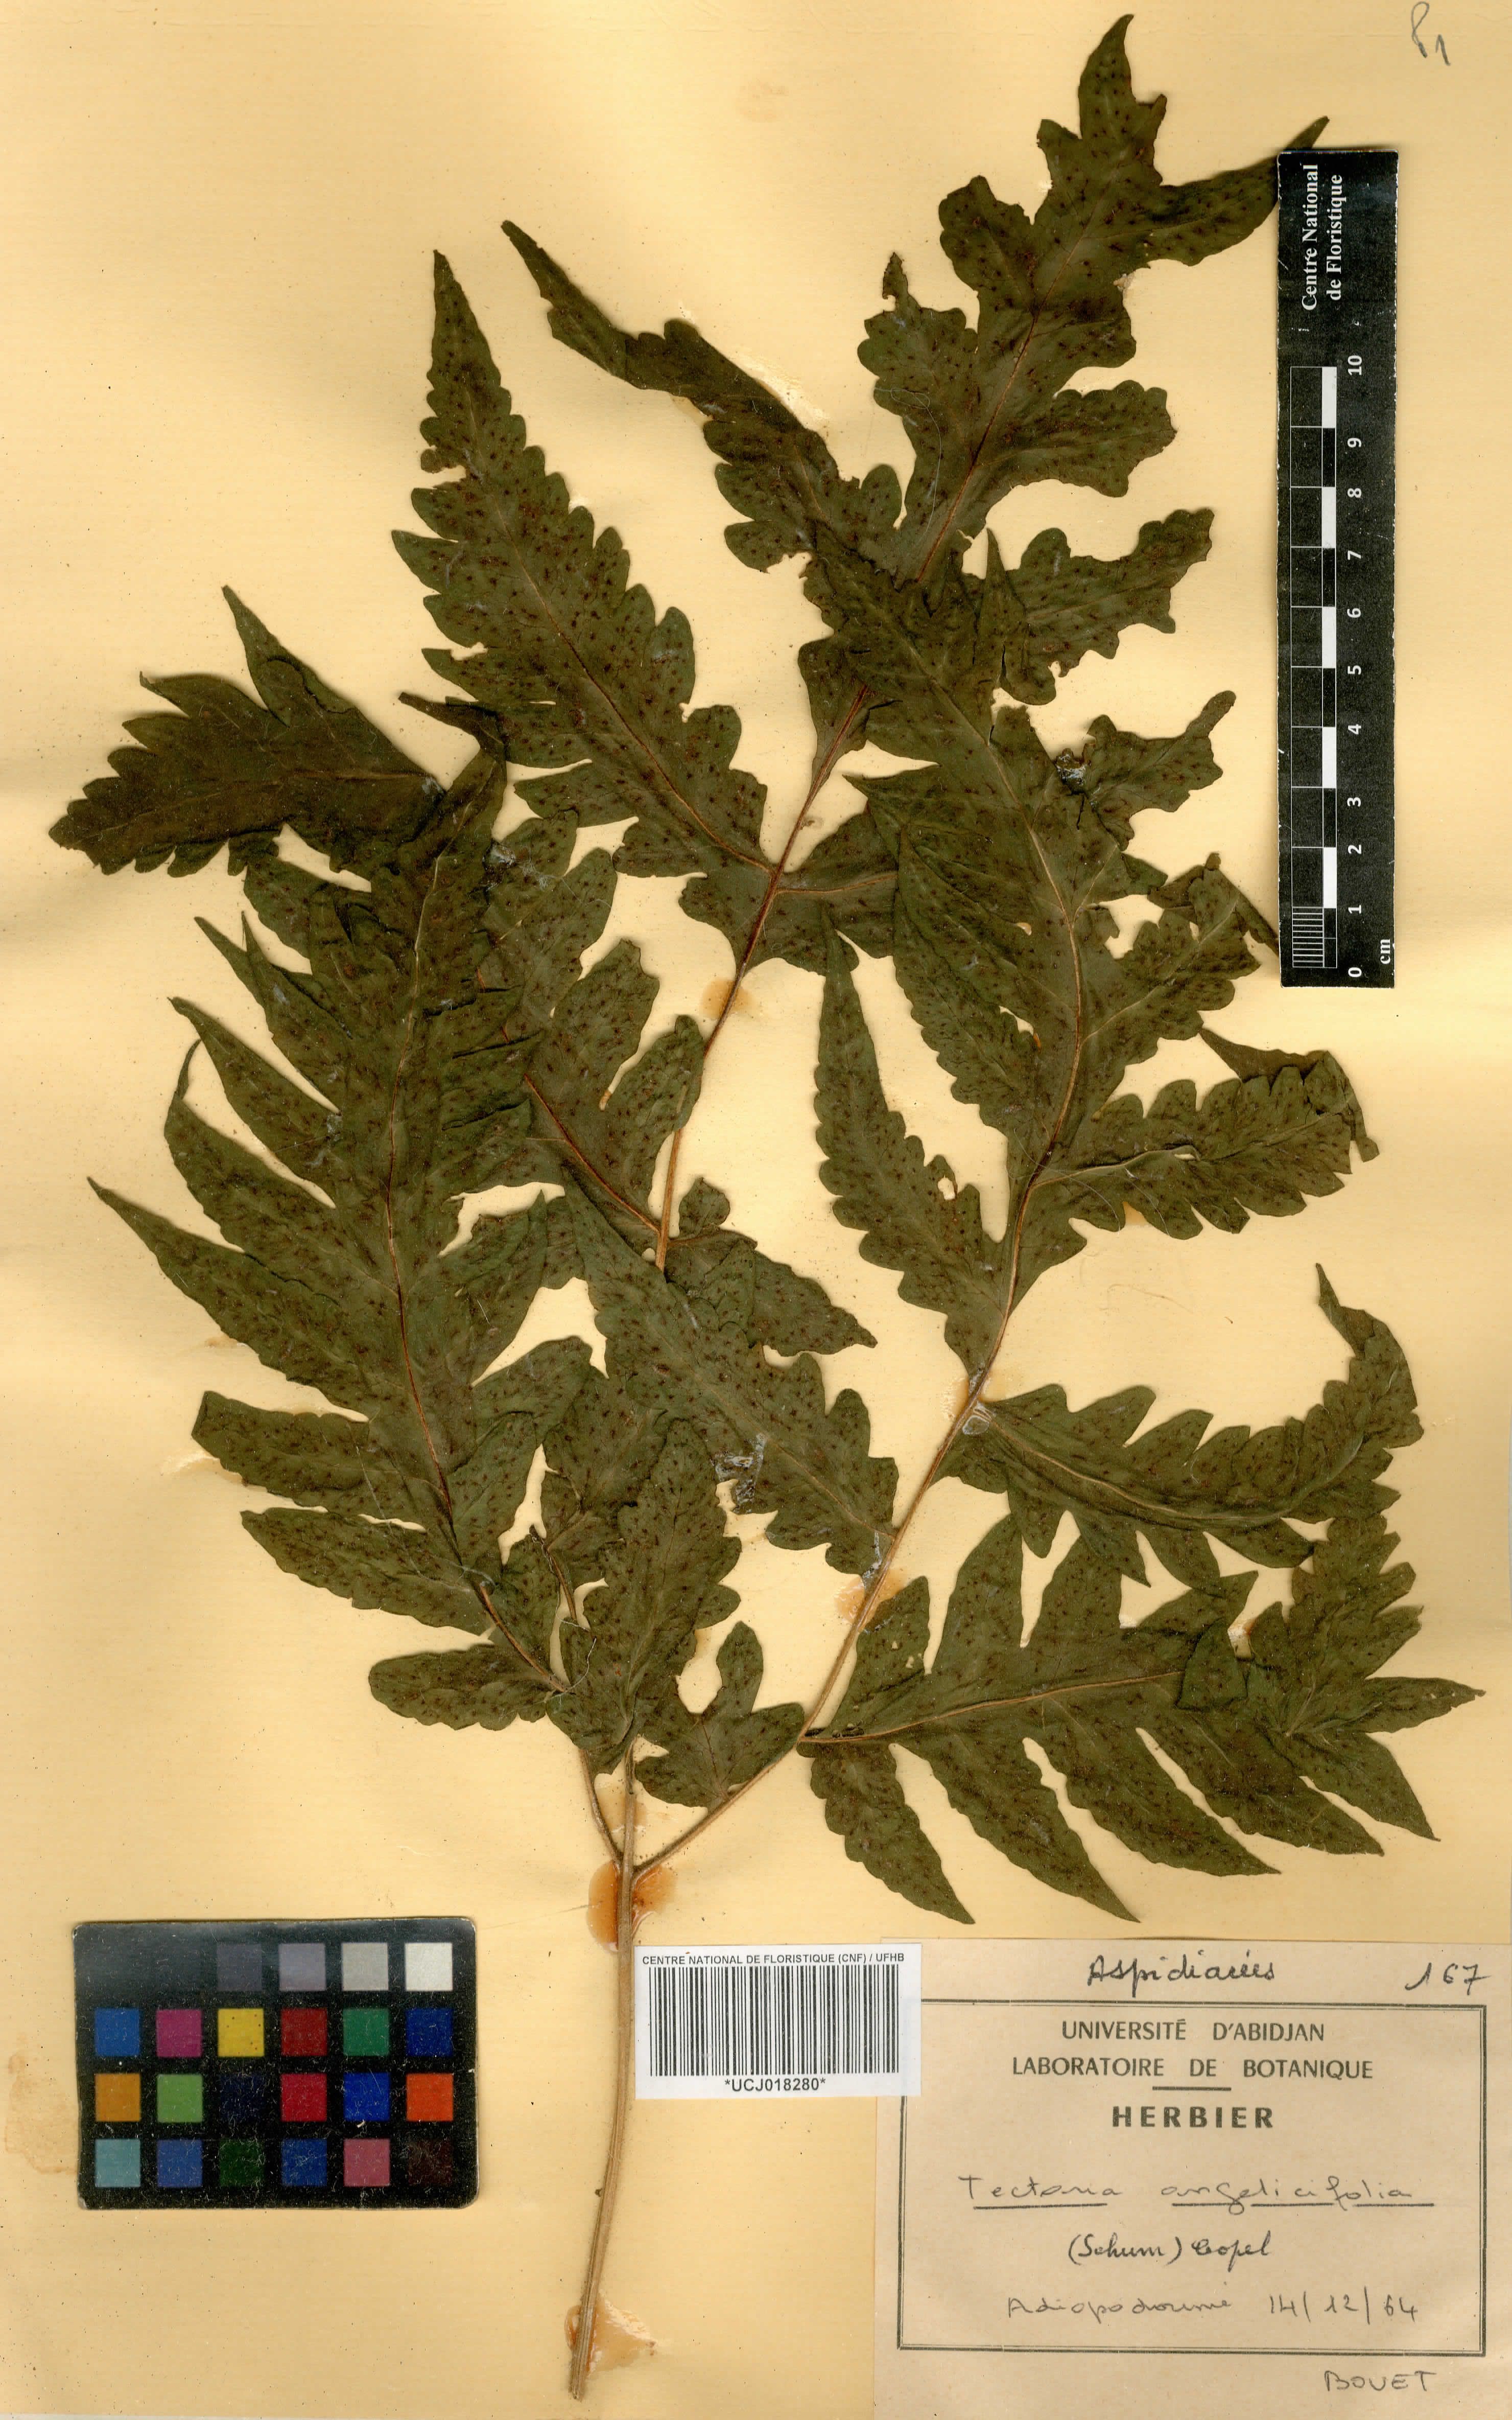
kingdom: Plantae
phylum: Tracheophyta
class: Polypodiopsida
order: Polypodiales
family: Tectariaceae
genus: Tectaria
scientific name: Tectaria angelicifolia
